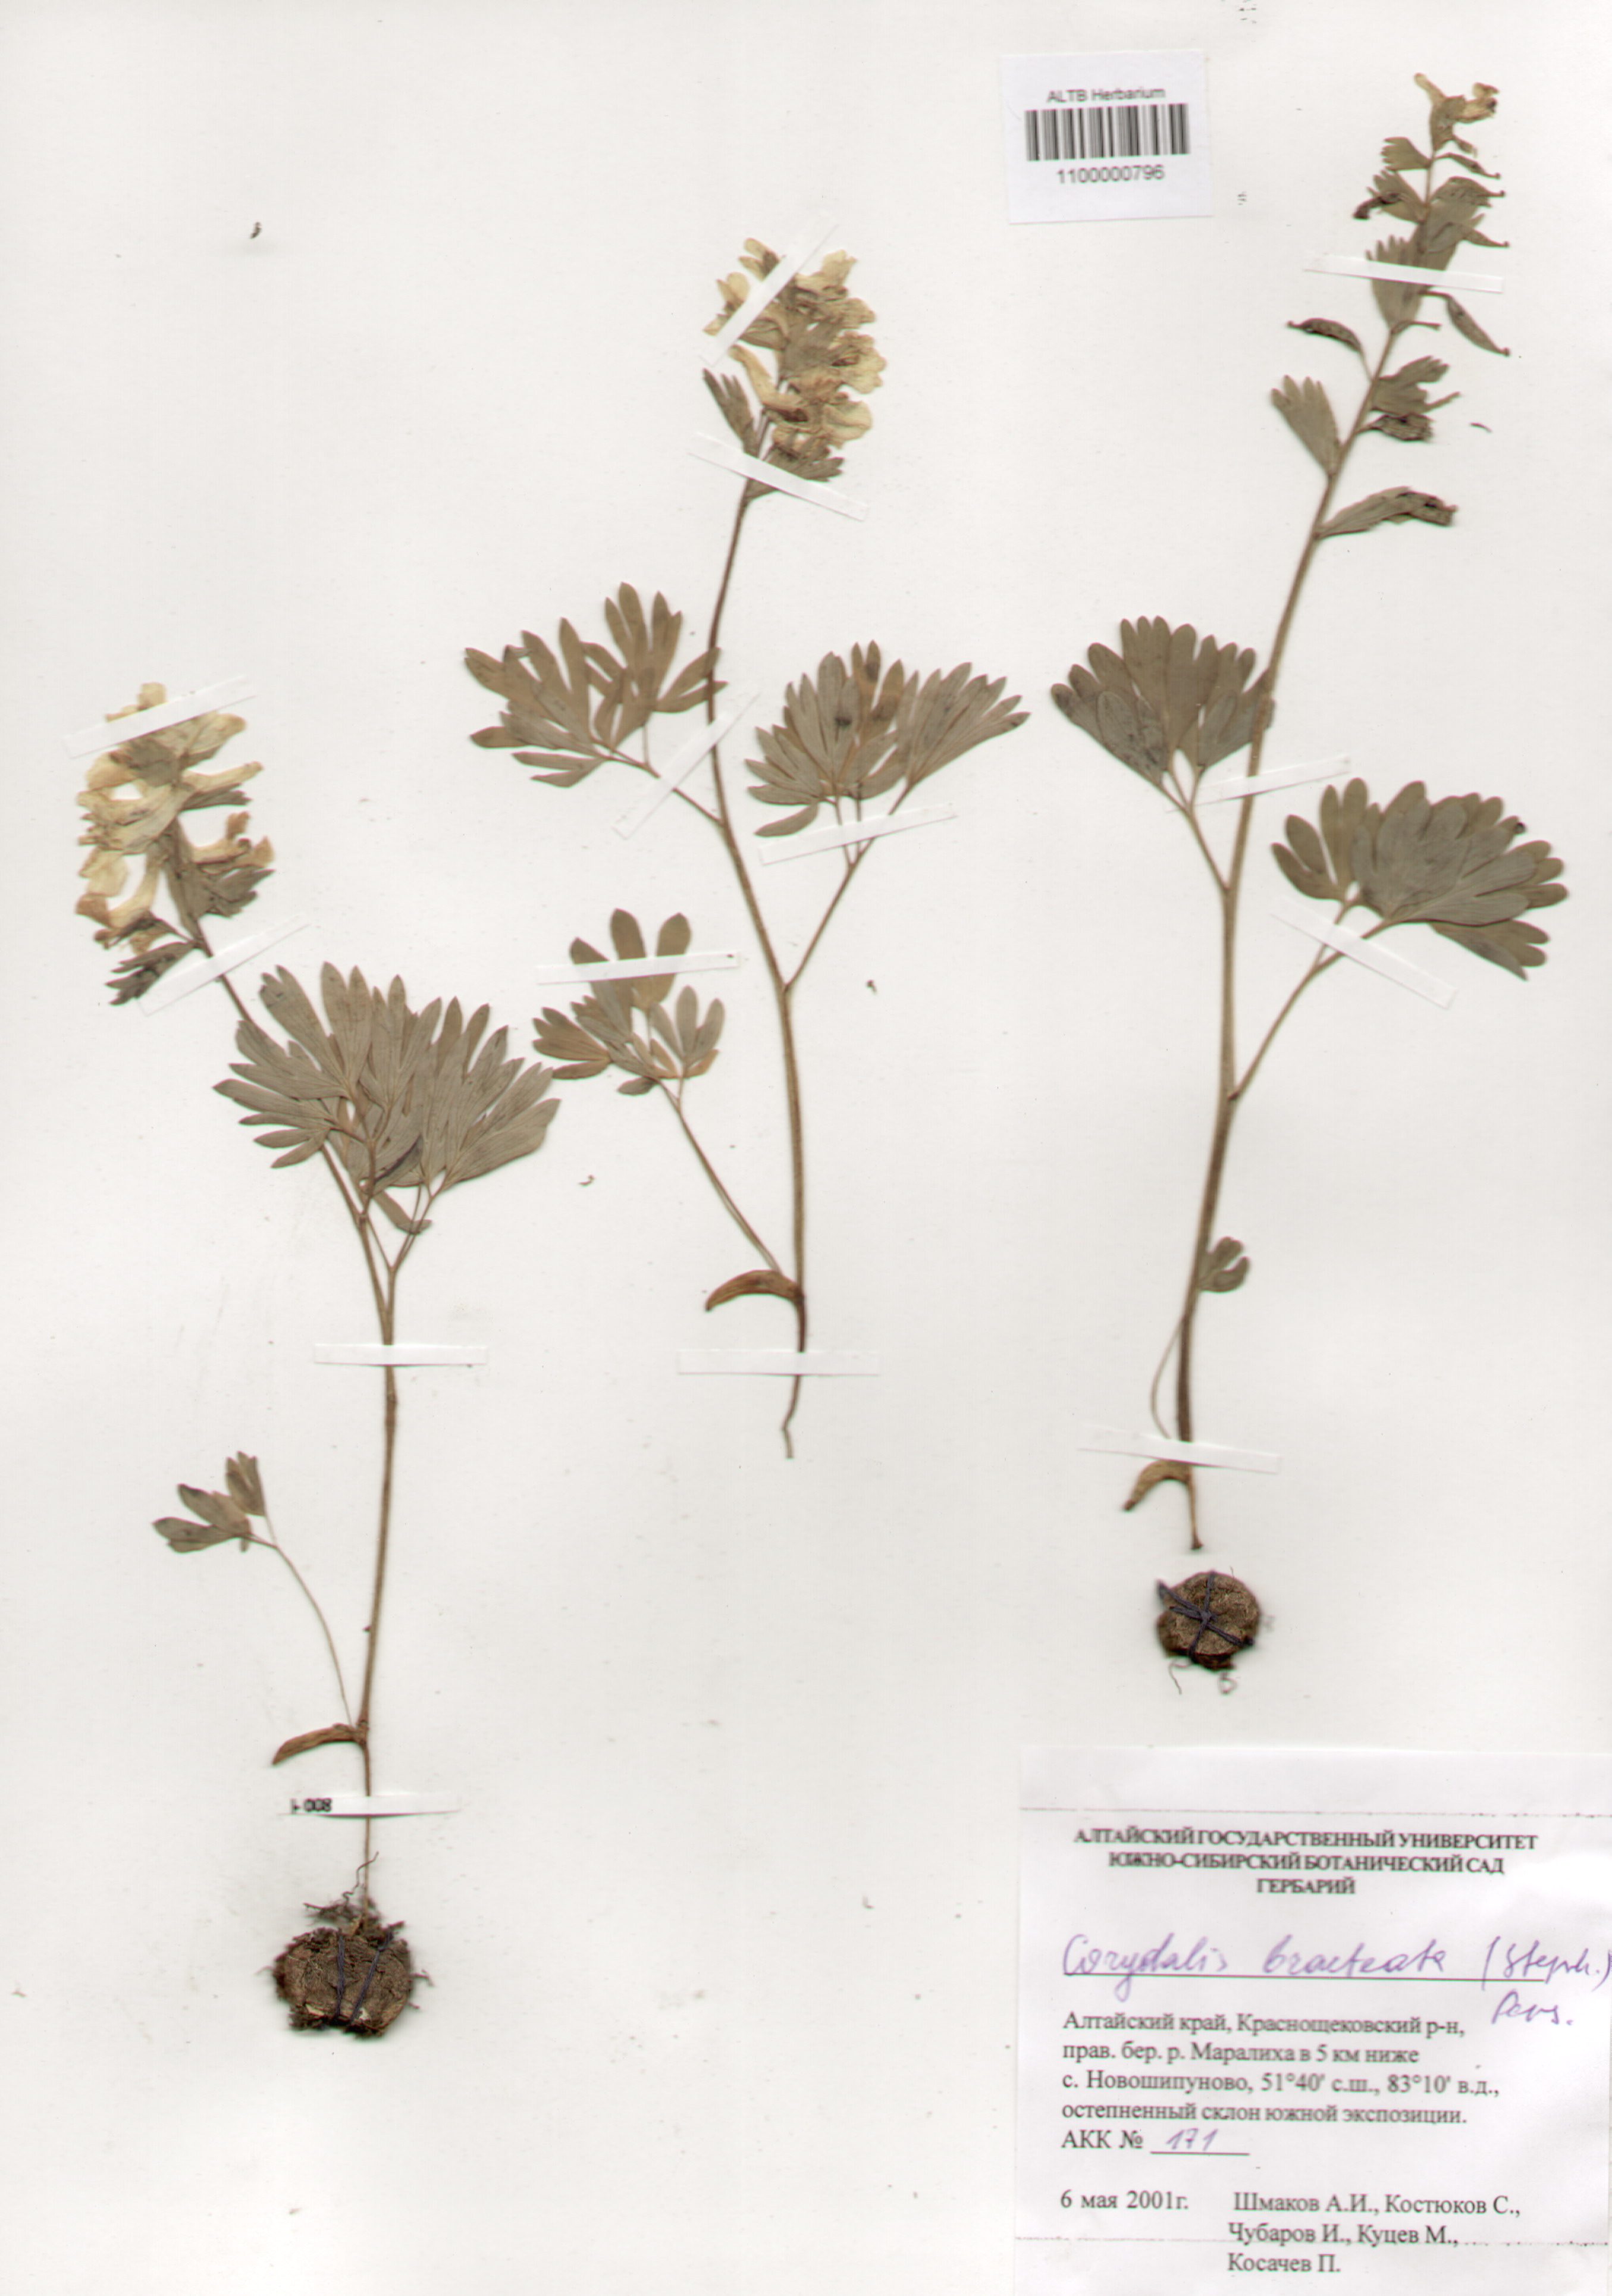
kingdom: Plantae
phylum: Tracheophyta
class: Magnoliopsida
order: Ranunculales
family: Papaveraceae
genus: Corydalis
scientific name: Corydalis bracteata
